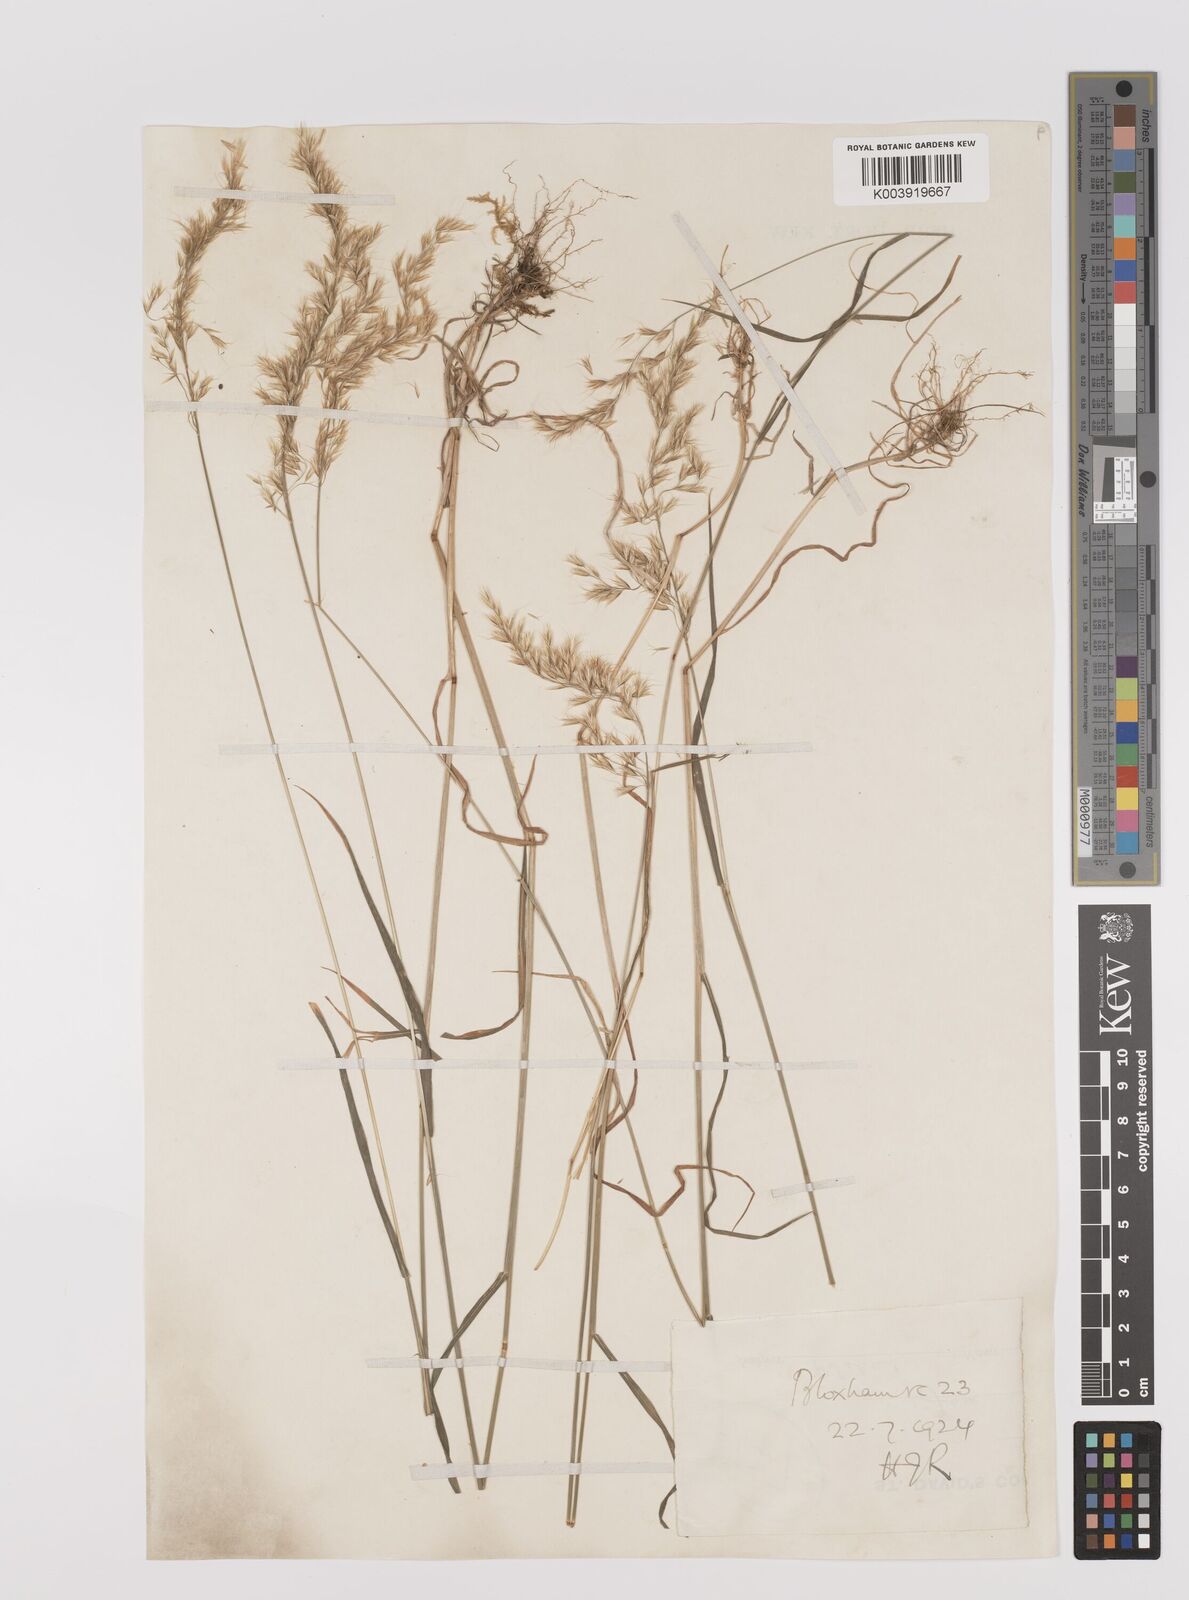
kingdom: Plantae
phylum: Tracheophyta
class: Liliopsida
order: Poales
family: Poaceae
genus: Trisetum
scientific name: Trisetum flavescens
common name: Yellow oat-grass
